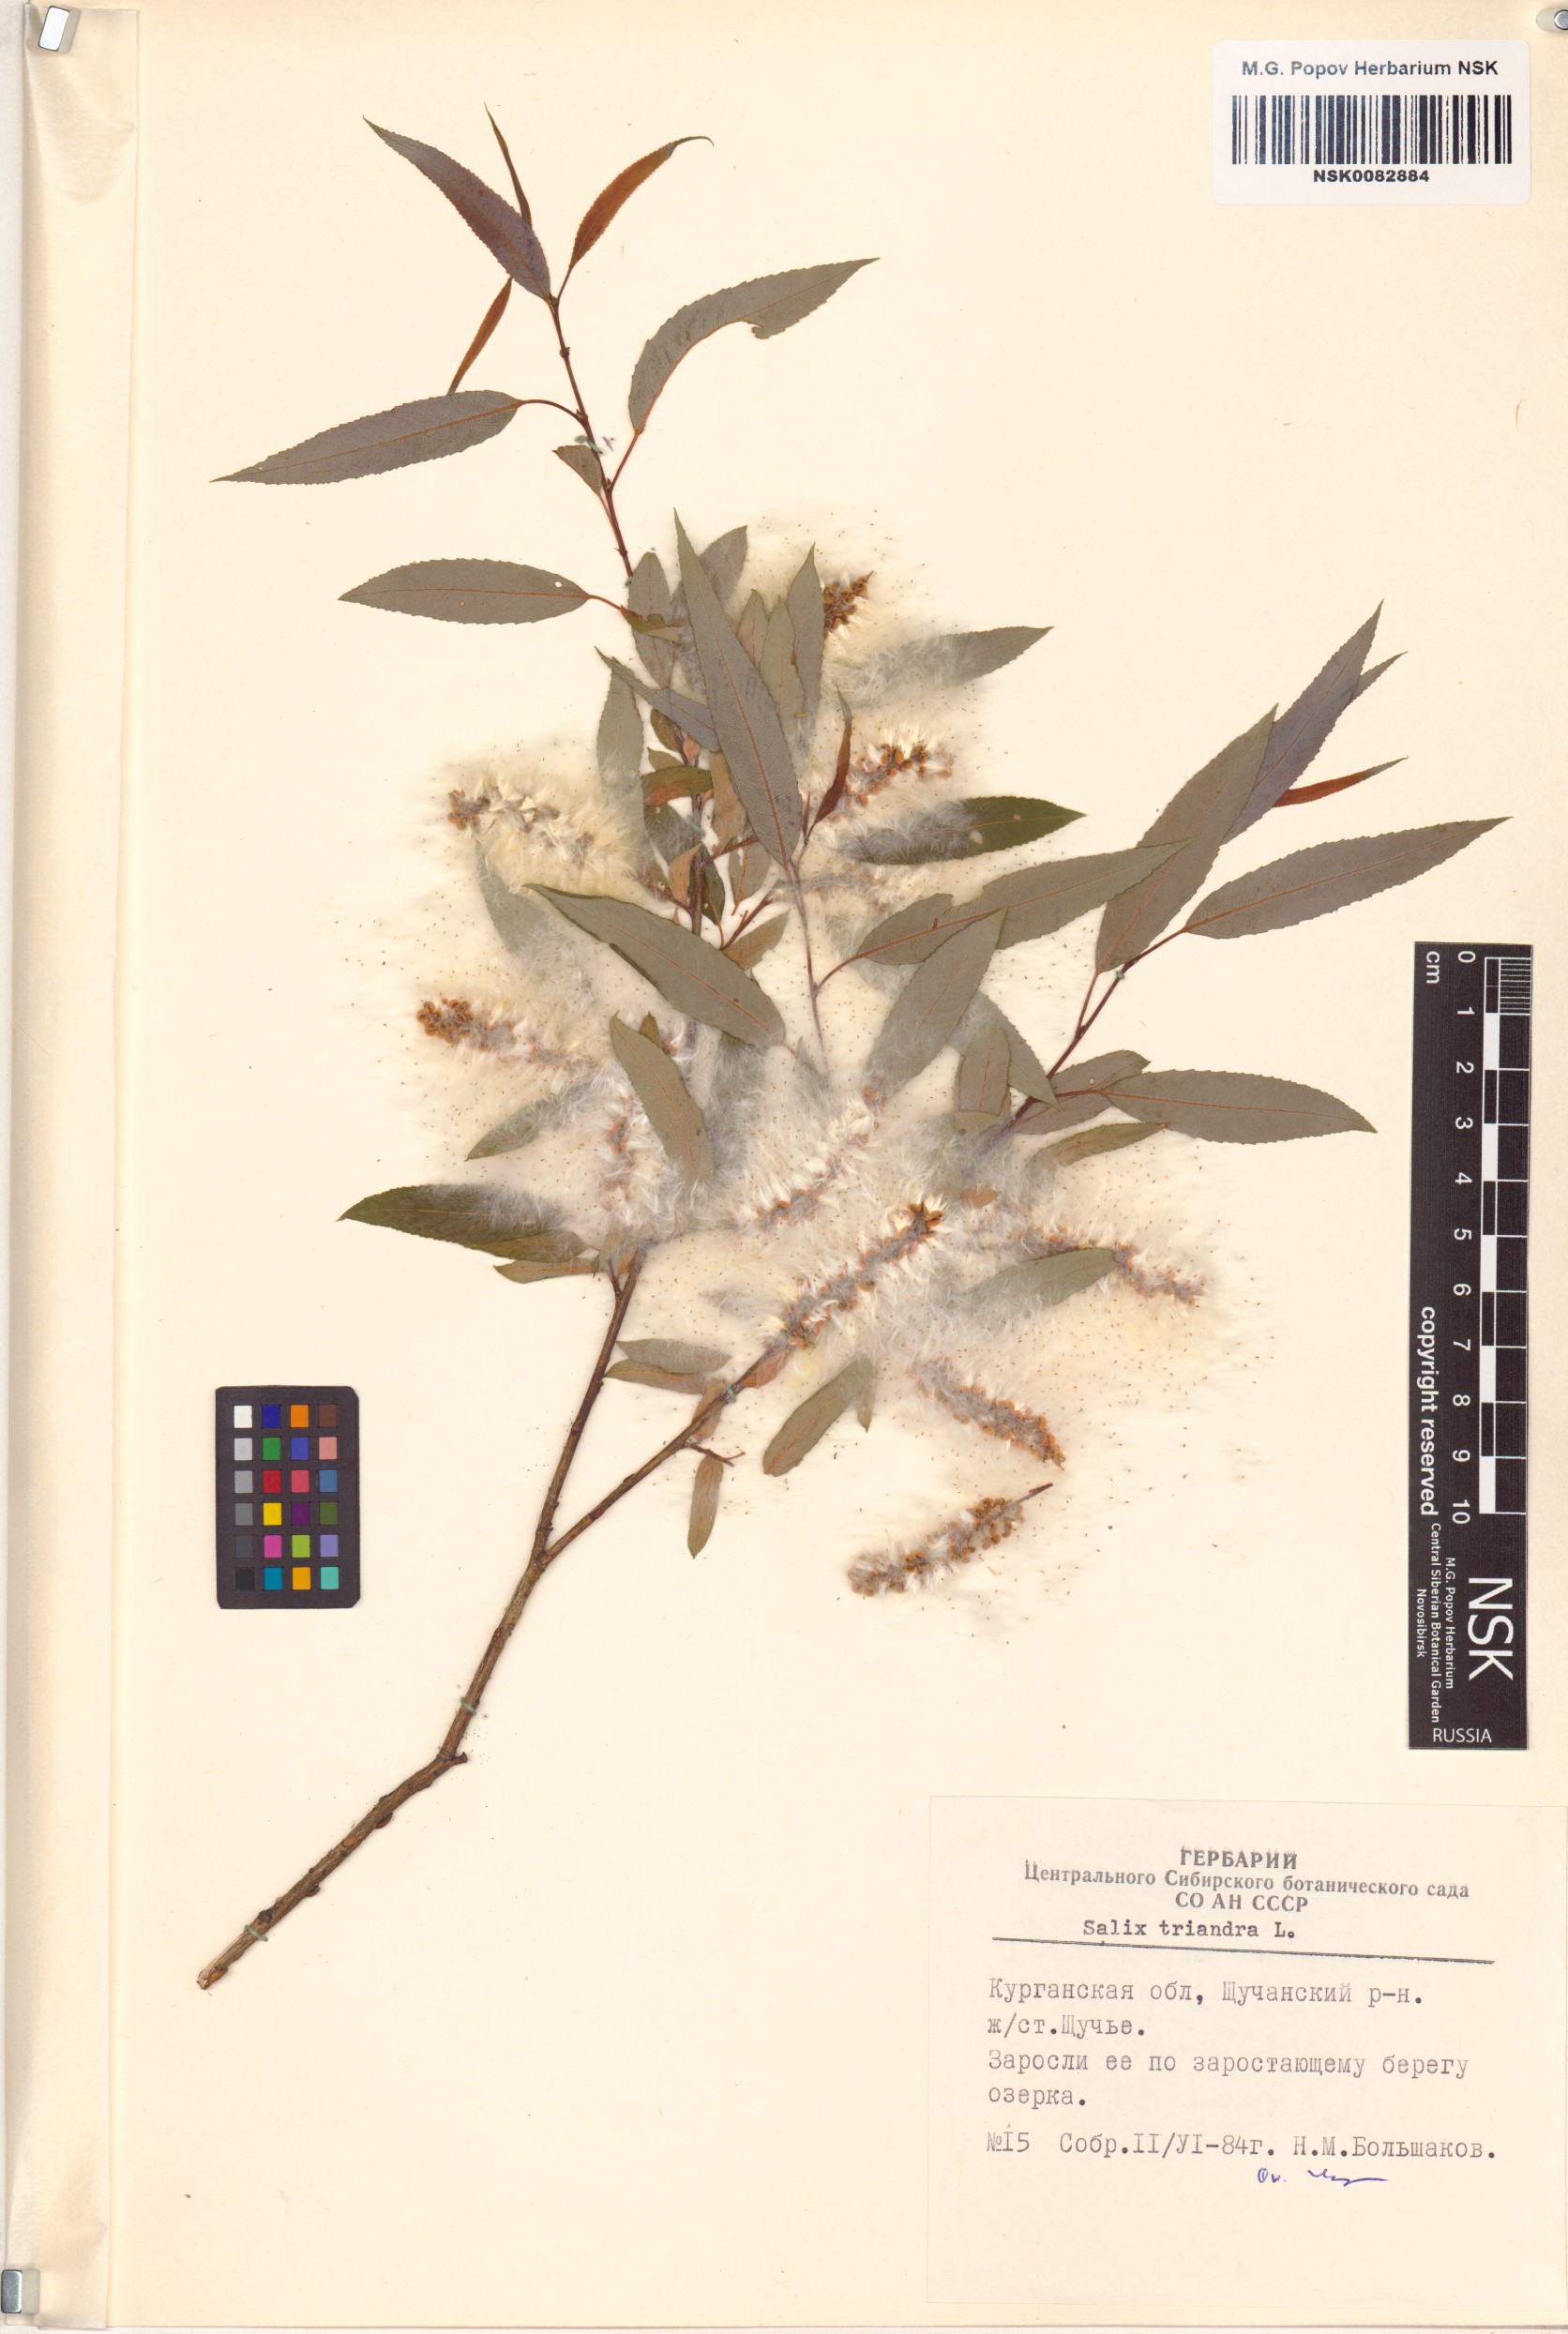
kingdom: Plantae
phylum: Tracheophyta
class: Magnoliopsida
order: Malpighiales
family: Salicaceae
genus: Salix
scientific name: Salix triandra
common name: Almond willow
